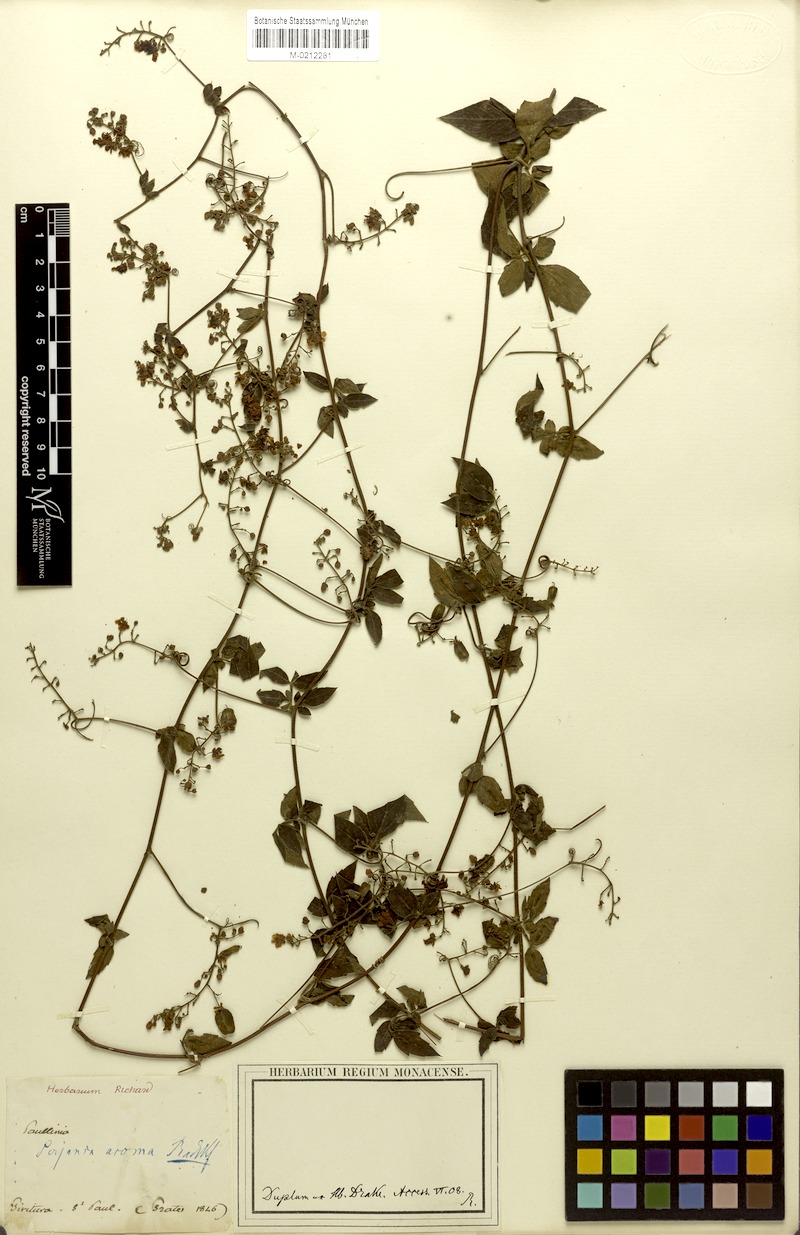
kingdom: Plantae
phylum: Tracheophyta
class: Magnoliopsida
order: Sapindales
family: Sapindaceae
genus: Serjania
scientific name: Serjania acoma
